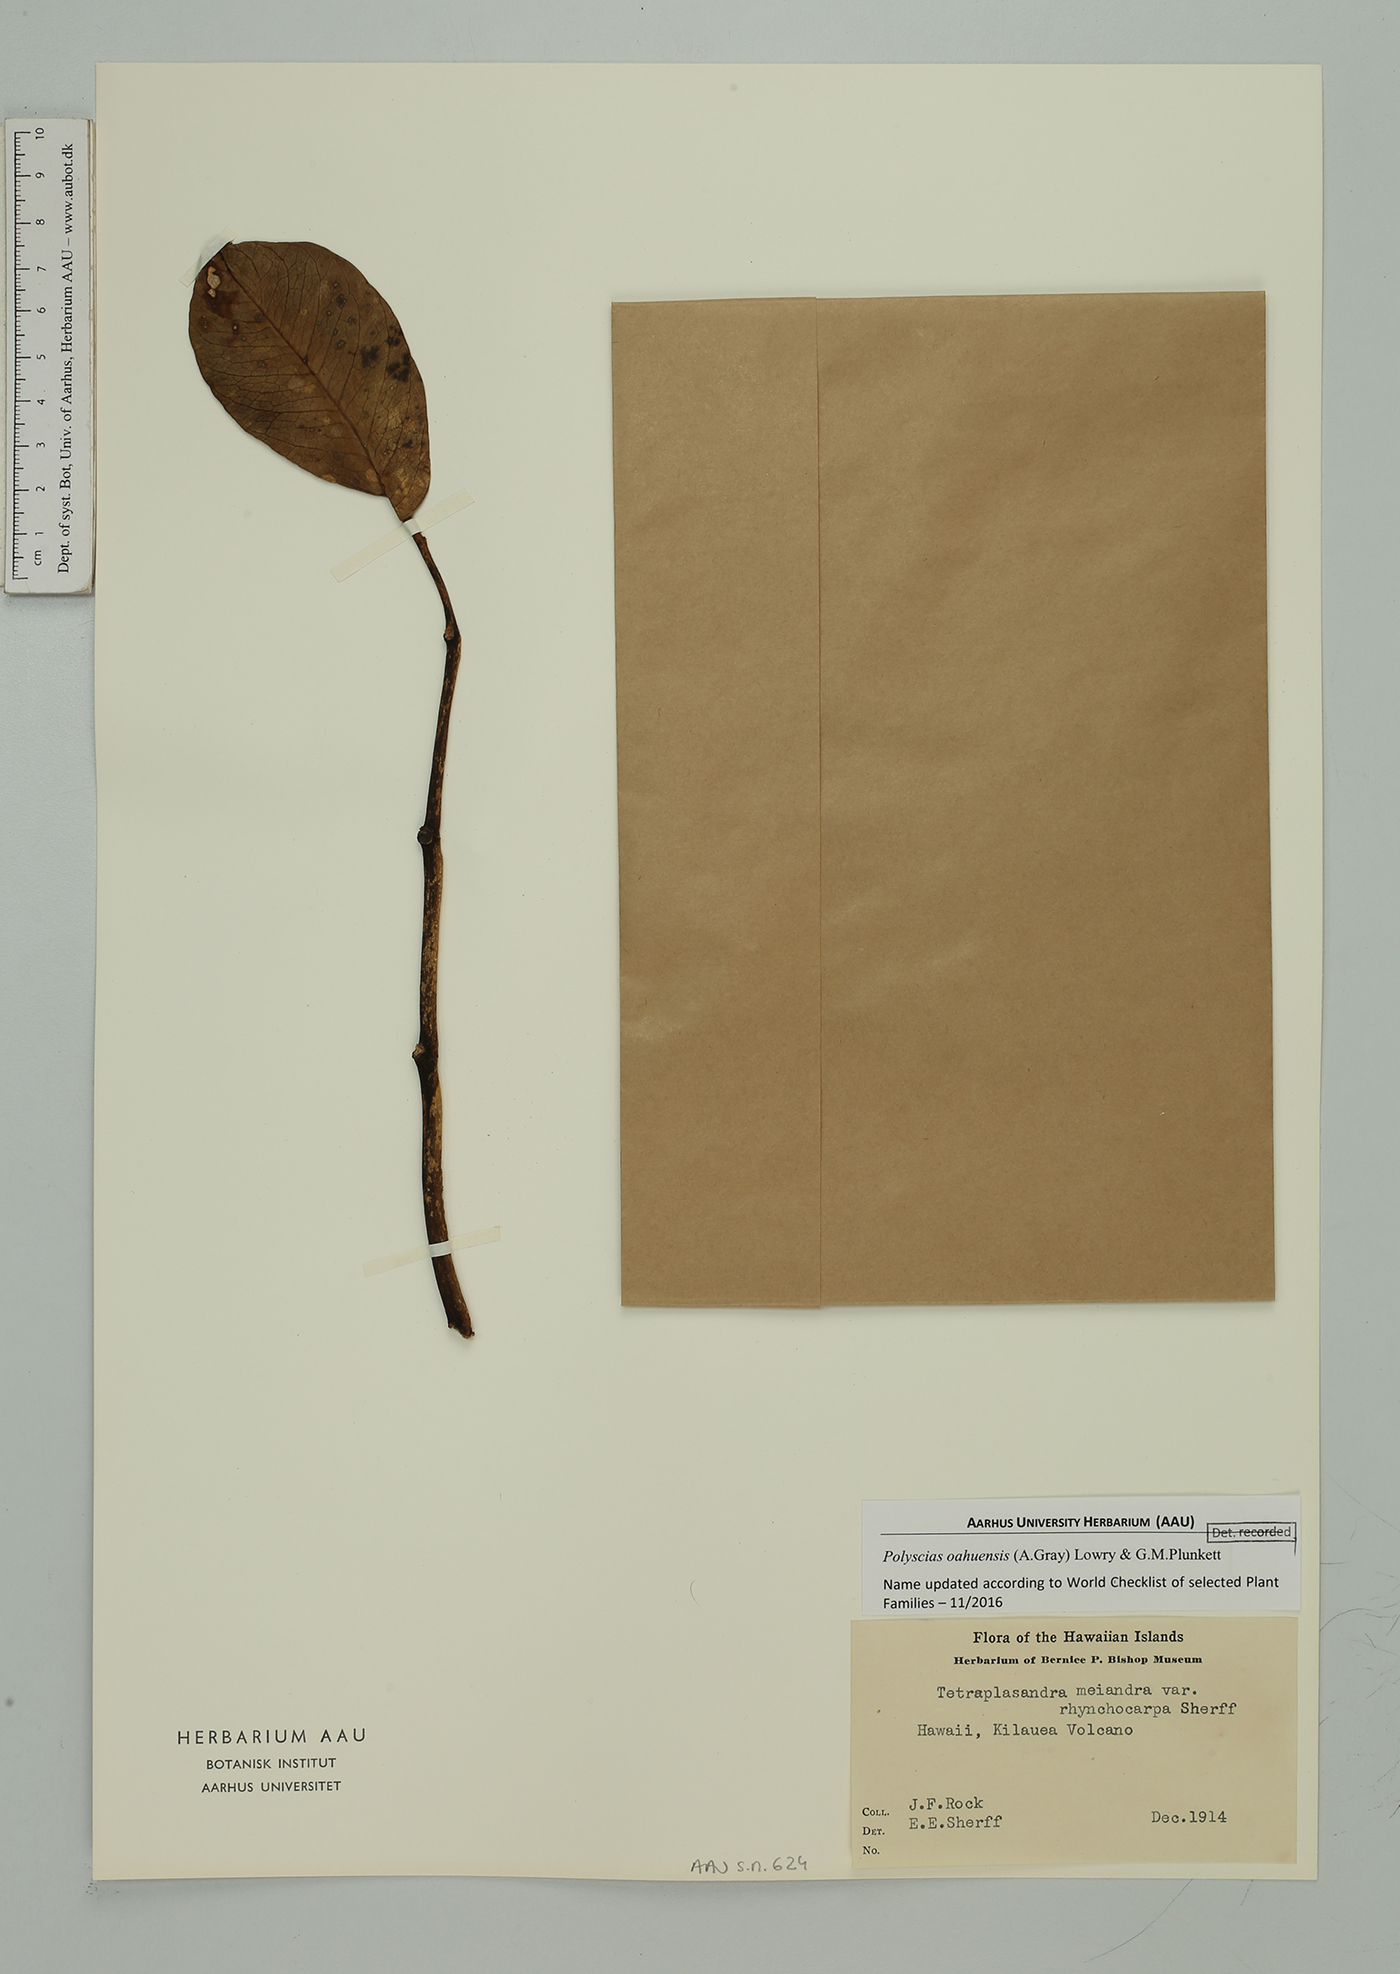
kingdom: Plantae
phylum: Tracheophyta
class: Magnoliopsida
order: Apiales
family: Araliaceae
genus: Polyscias
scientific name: Polyscias oahuensis
